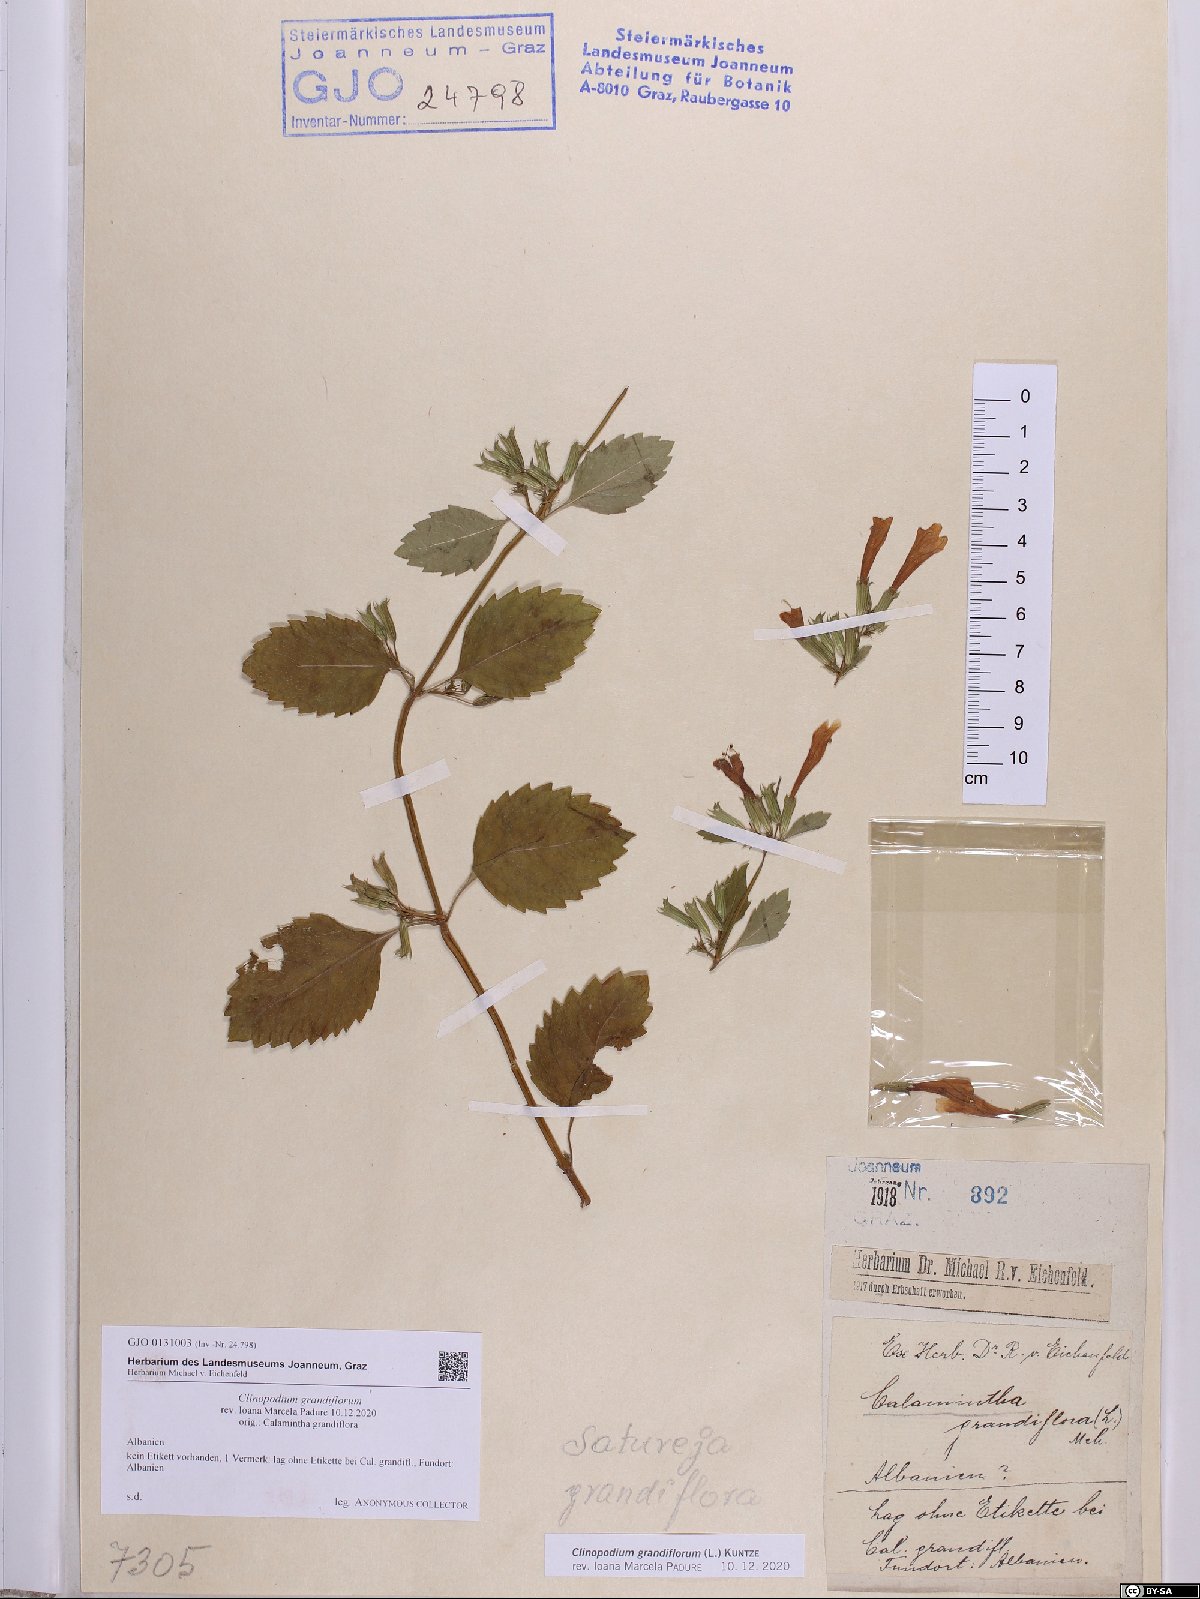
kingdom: Plantae
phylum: Tracheophyta
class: Magnoliopsida
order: Lamiales
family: Lamiaceae
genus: Clinopodium
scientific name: Clinopodium grandiflorum
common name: Greater calamint
